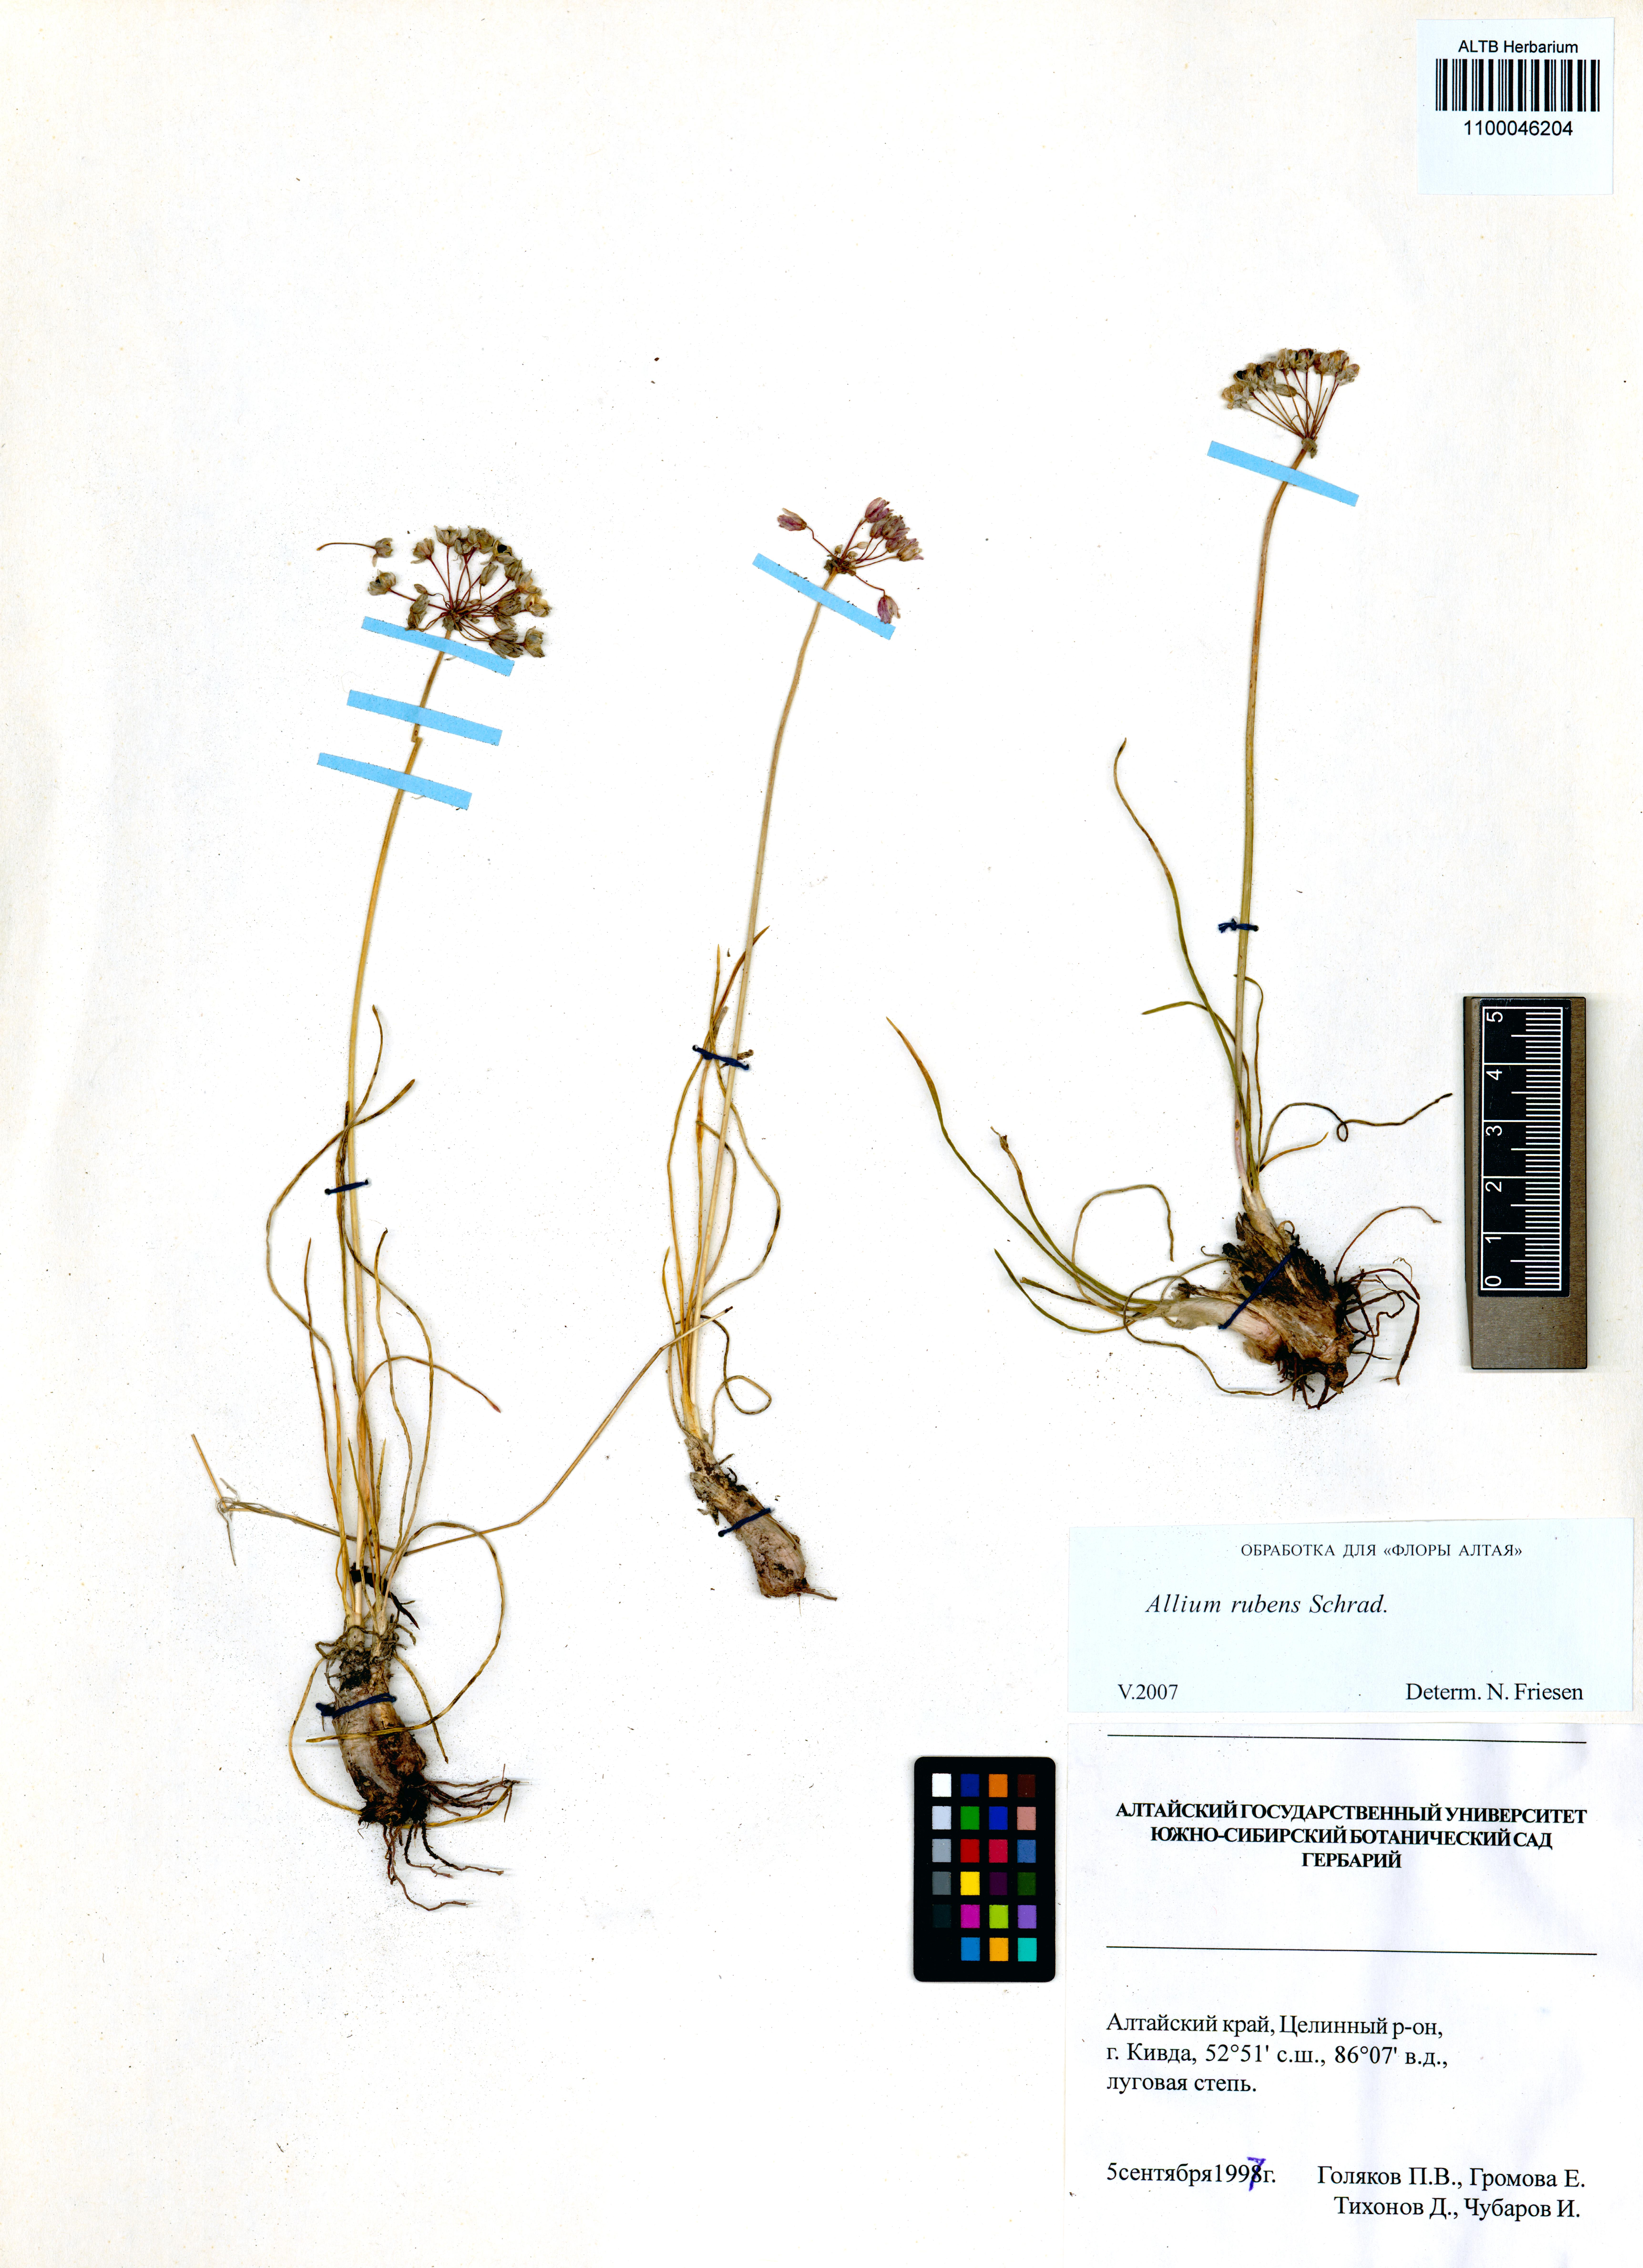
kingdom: Plantae
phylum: Tracheophyta
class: Liliopsida
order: Asparagales
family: Amaryllidaceae
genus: Allium
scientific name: Allium rubens
